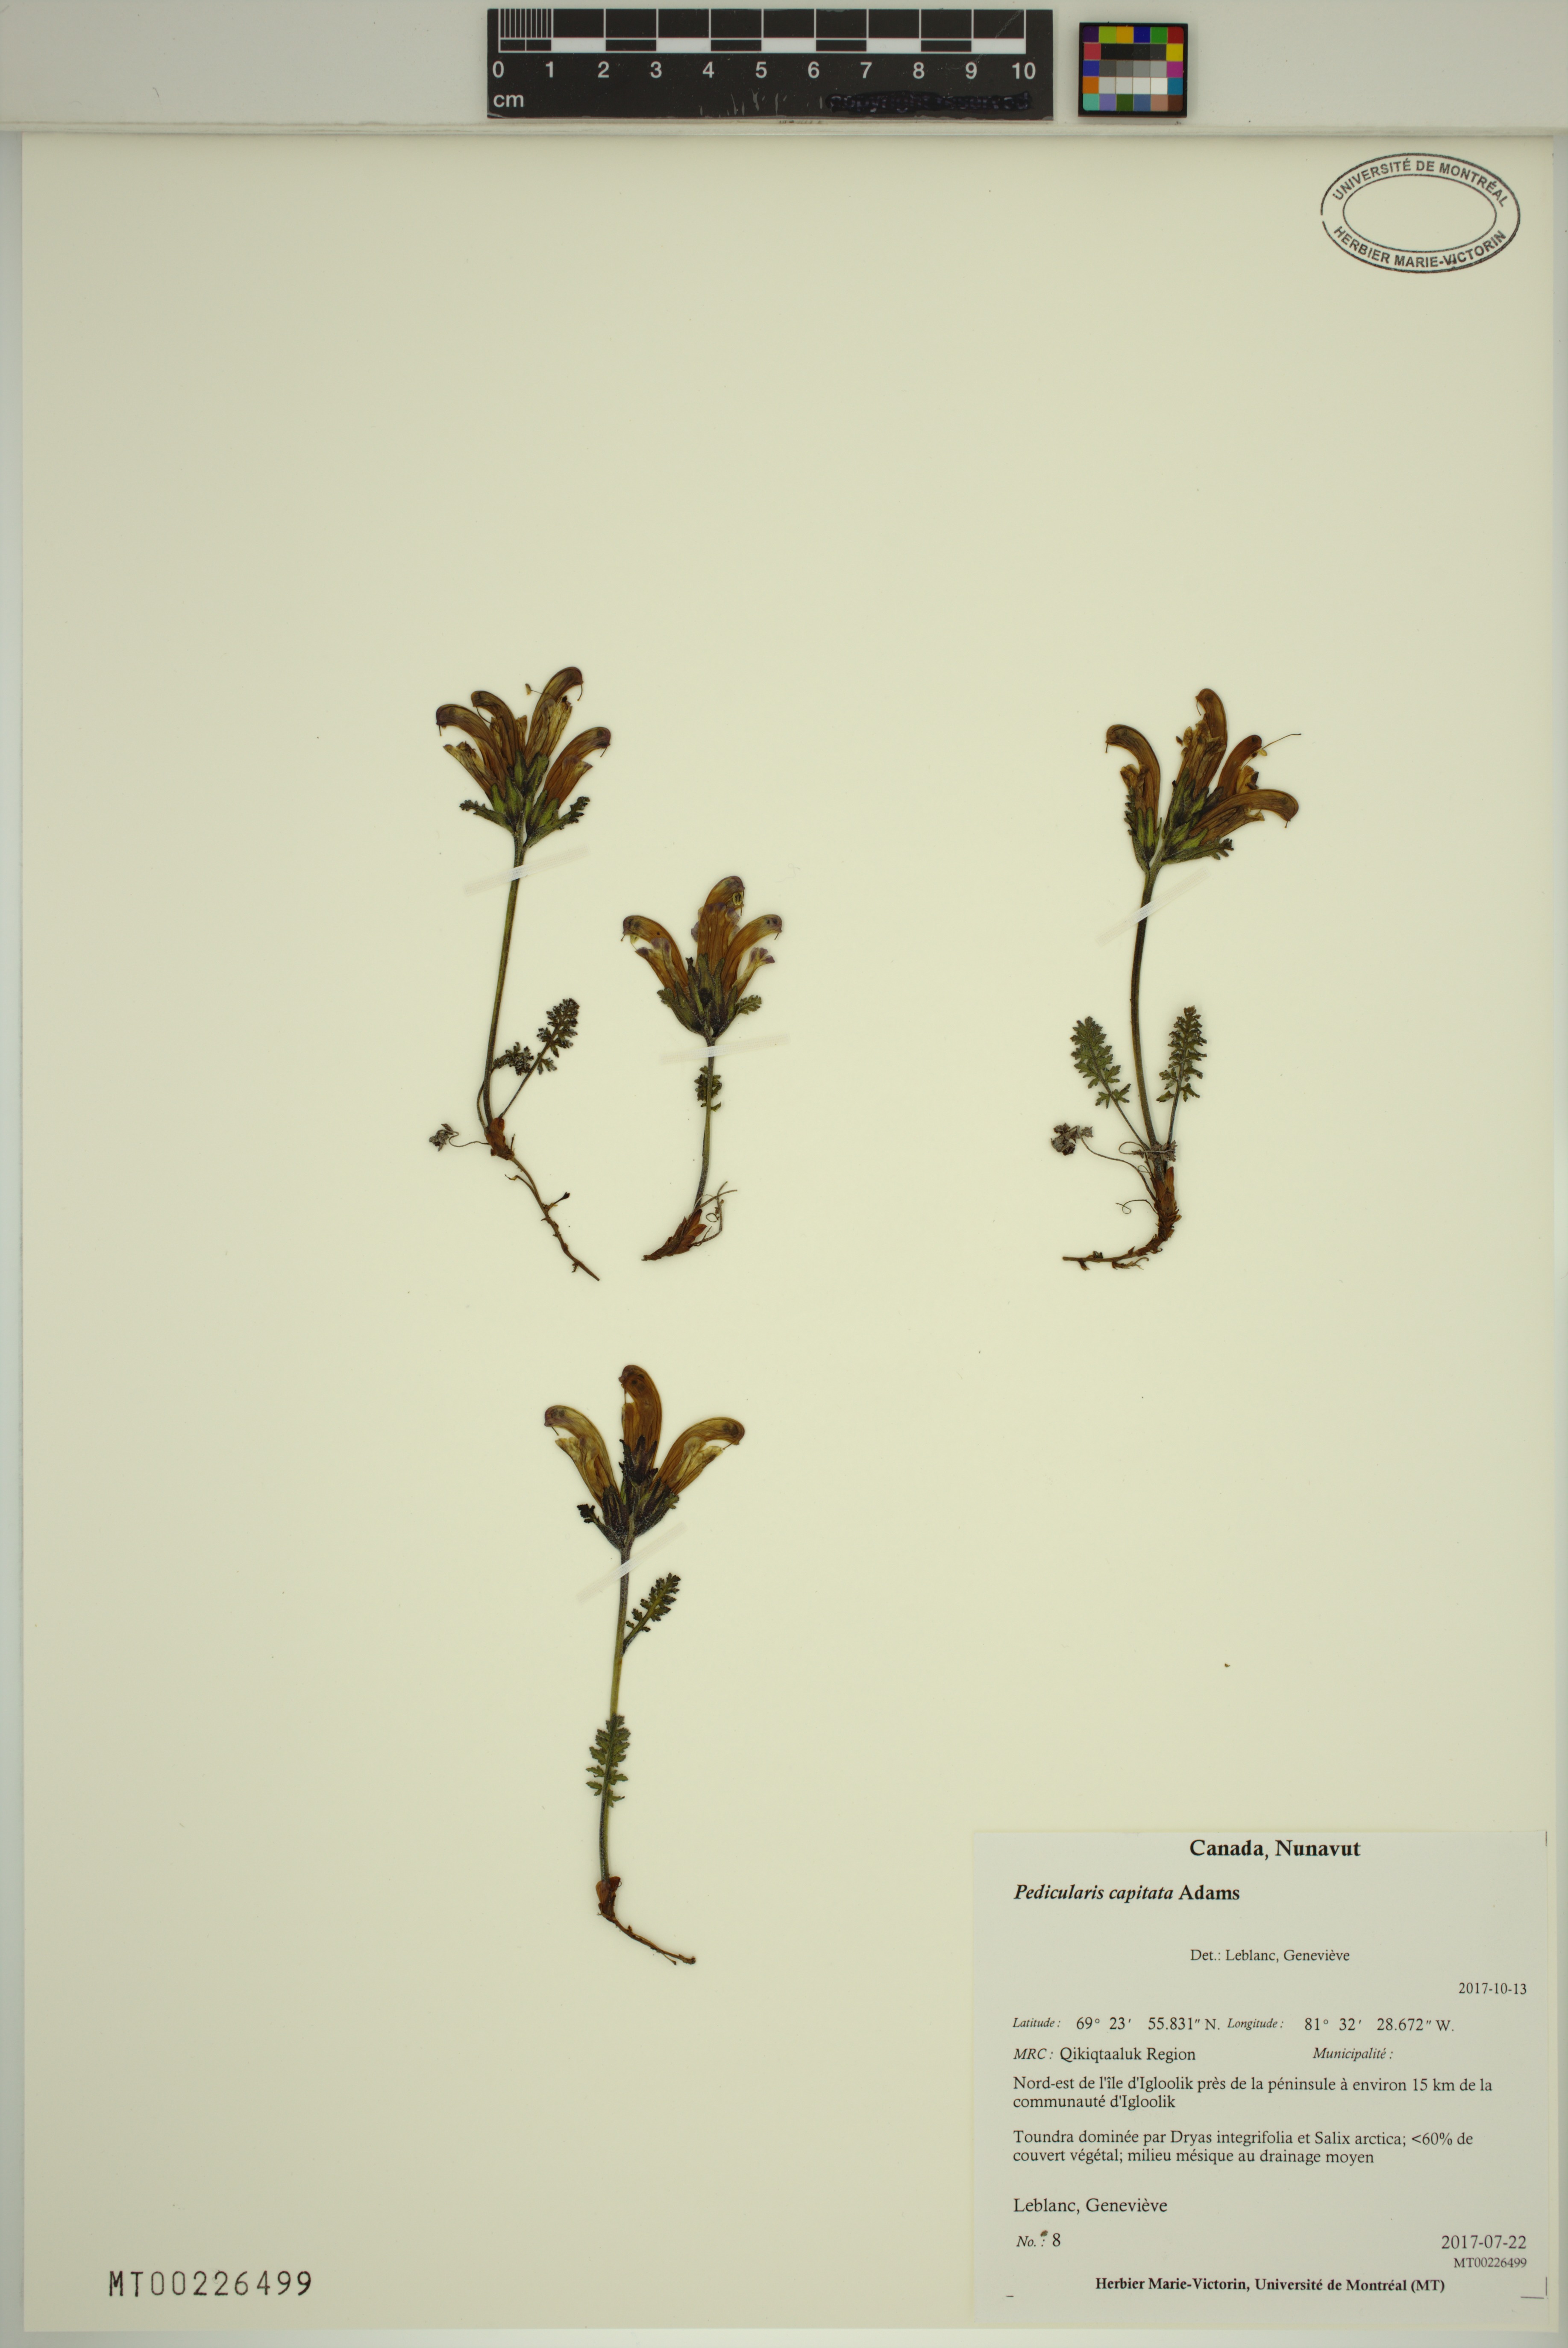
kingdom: Plantae
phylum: Tracheophyta
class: Magnoliopsida
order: Lamiales
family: Orobanchaceae
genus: Pedicularis
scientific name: Pedicularis capitata
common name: Capitate lousewort
